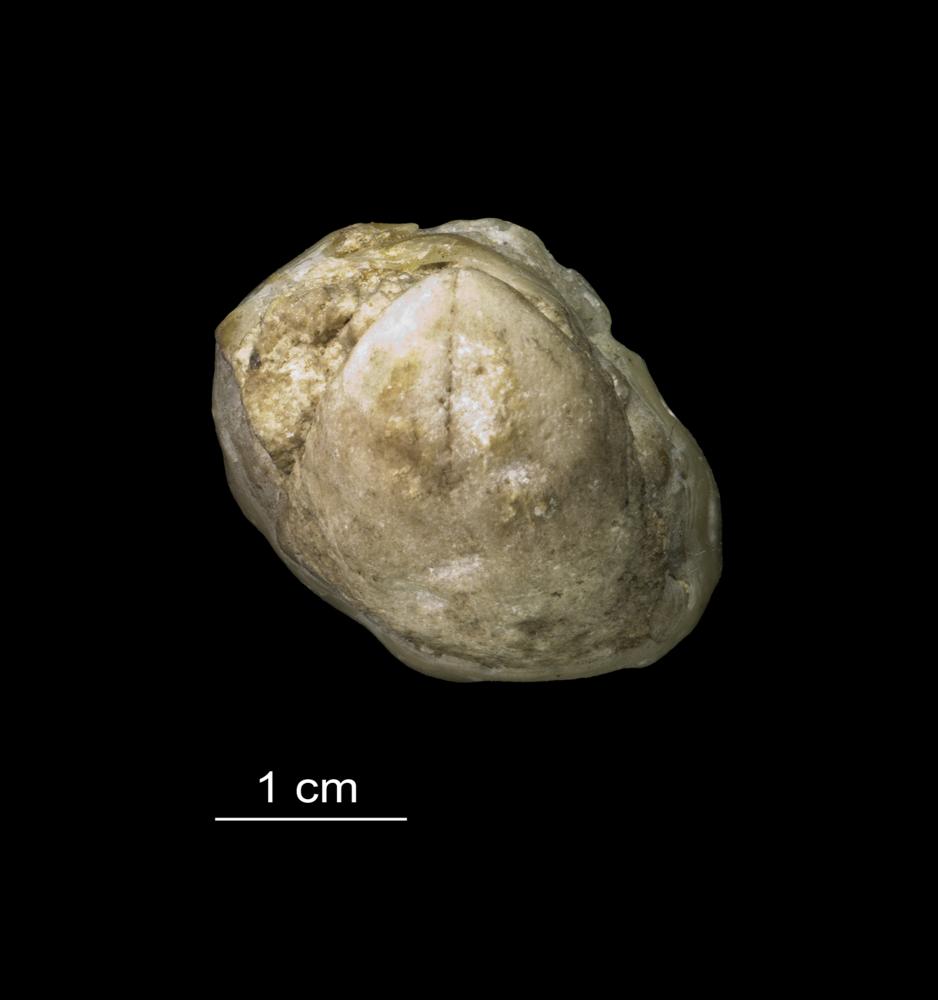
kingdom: Animalia
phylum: Brachiopoda
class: Rhynchonellata
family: Virgianidae
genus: Borealis
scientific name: Borealis Gypidula borealis
